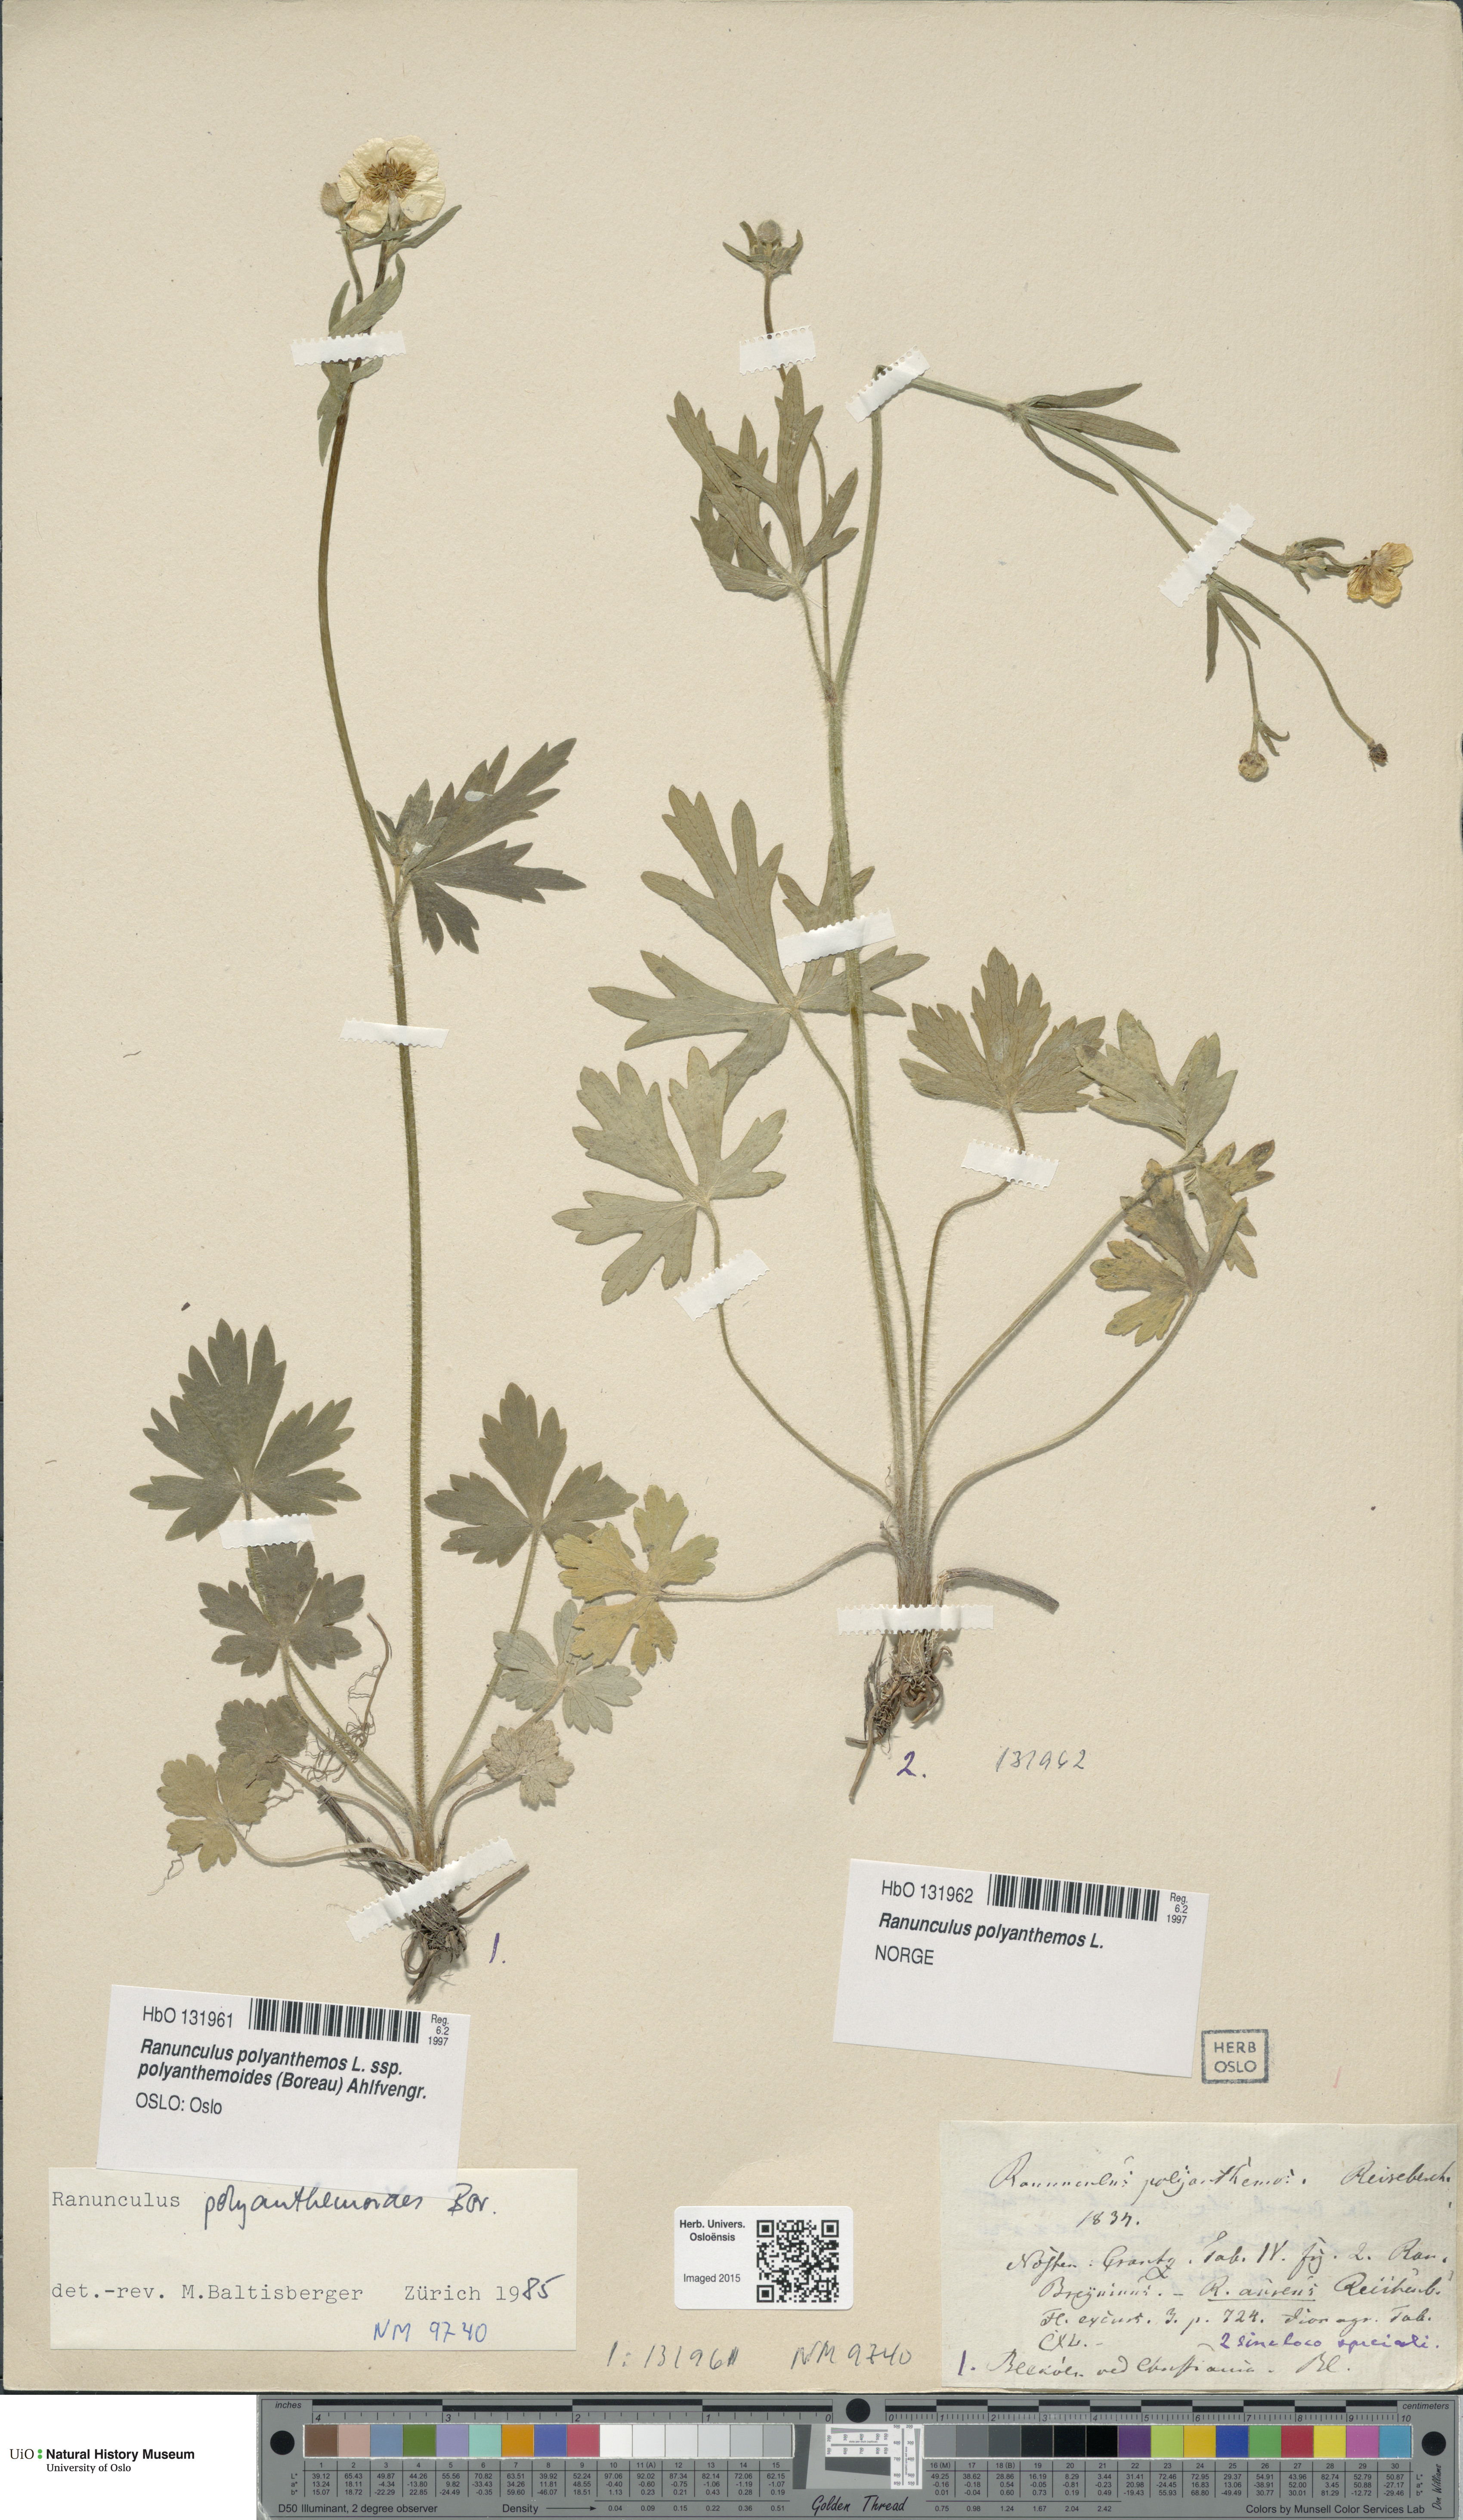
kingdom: Plantae
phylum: Tracheophyta
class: Magnoliopsida
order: Ranunculales
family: Ranunculaceae
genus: Ranunculus
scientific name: Ranunculus polyanthemos
